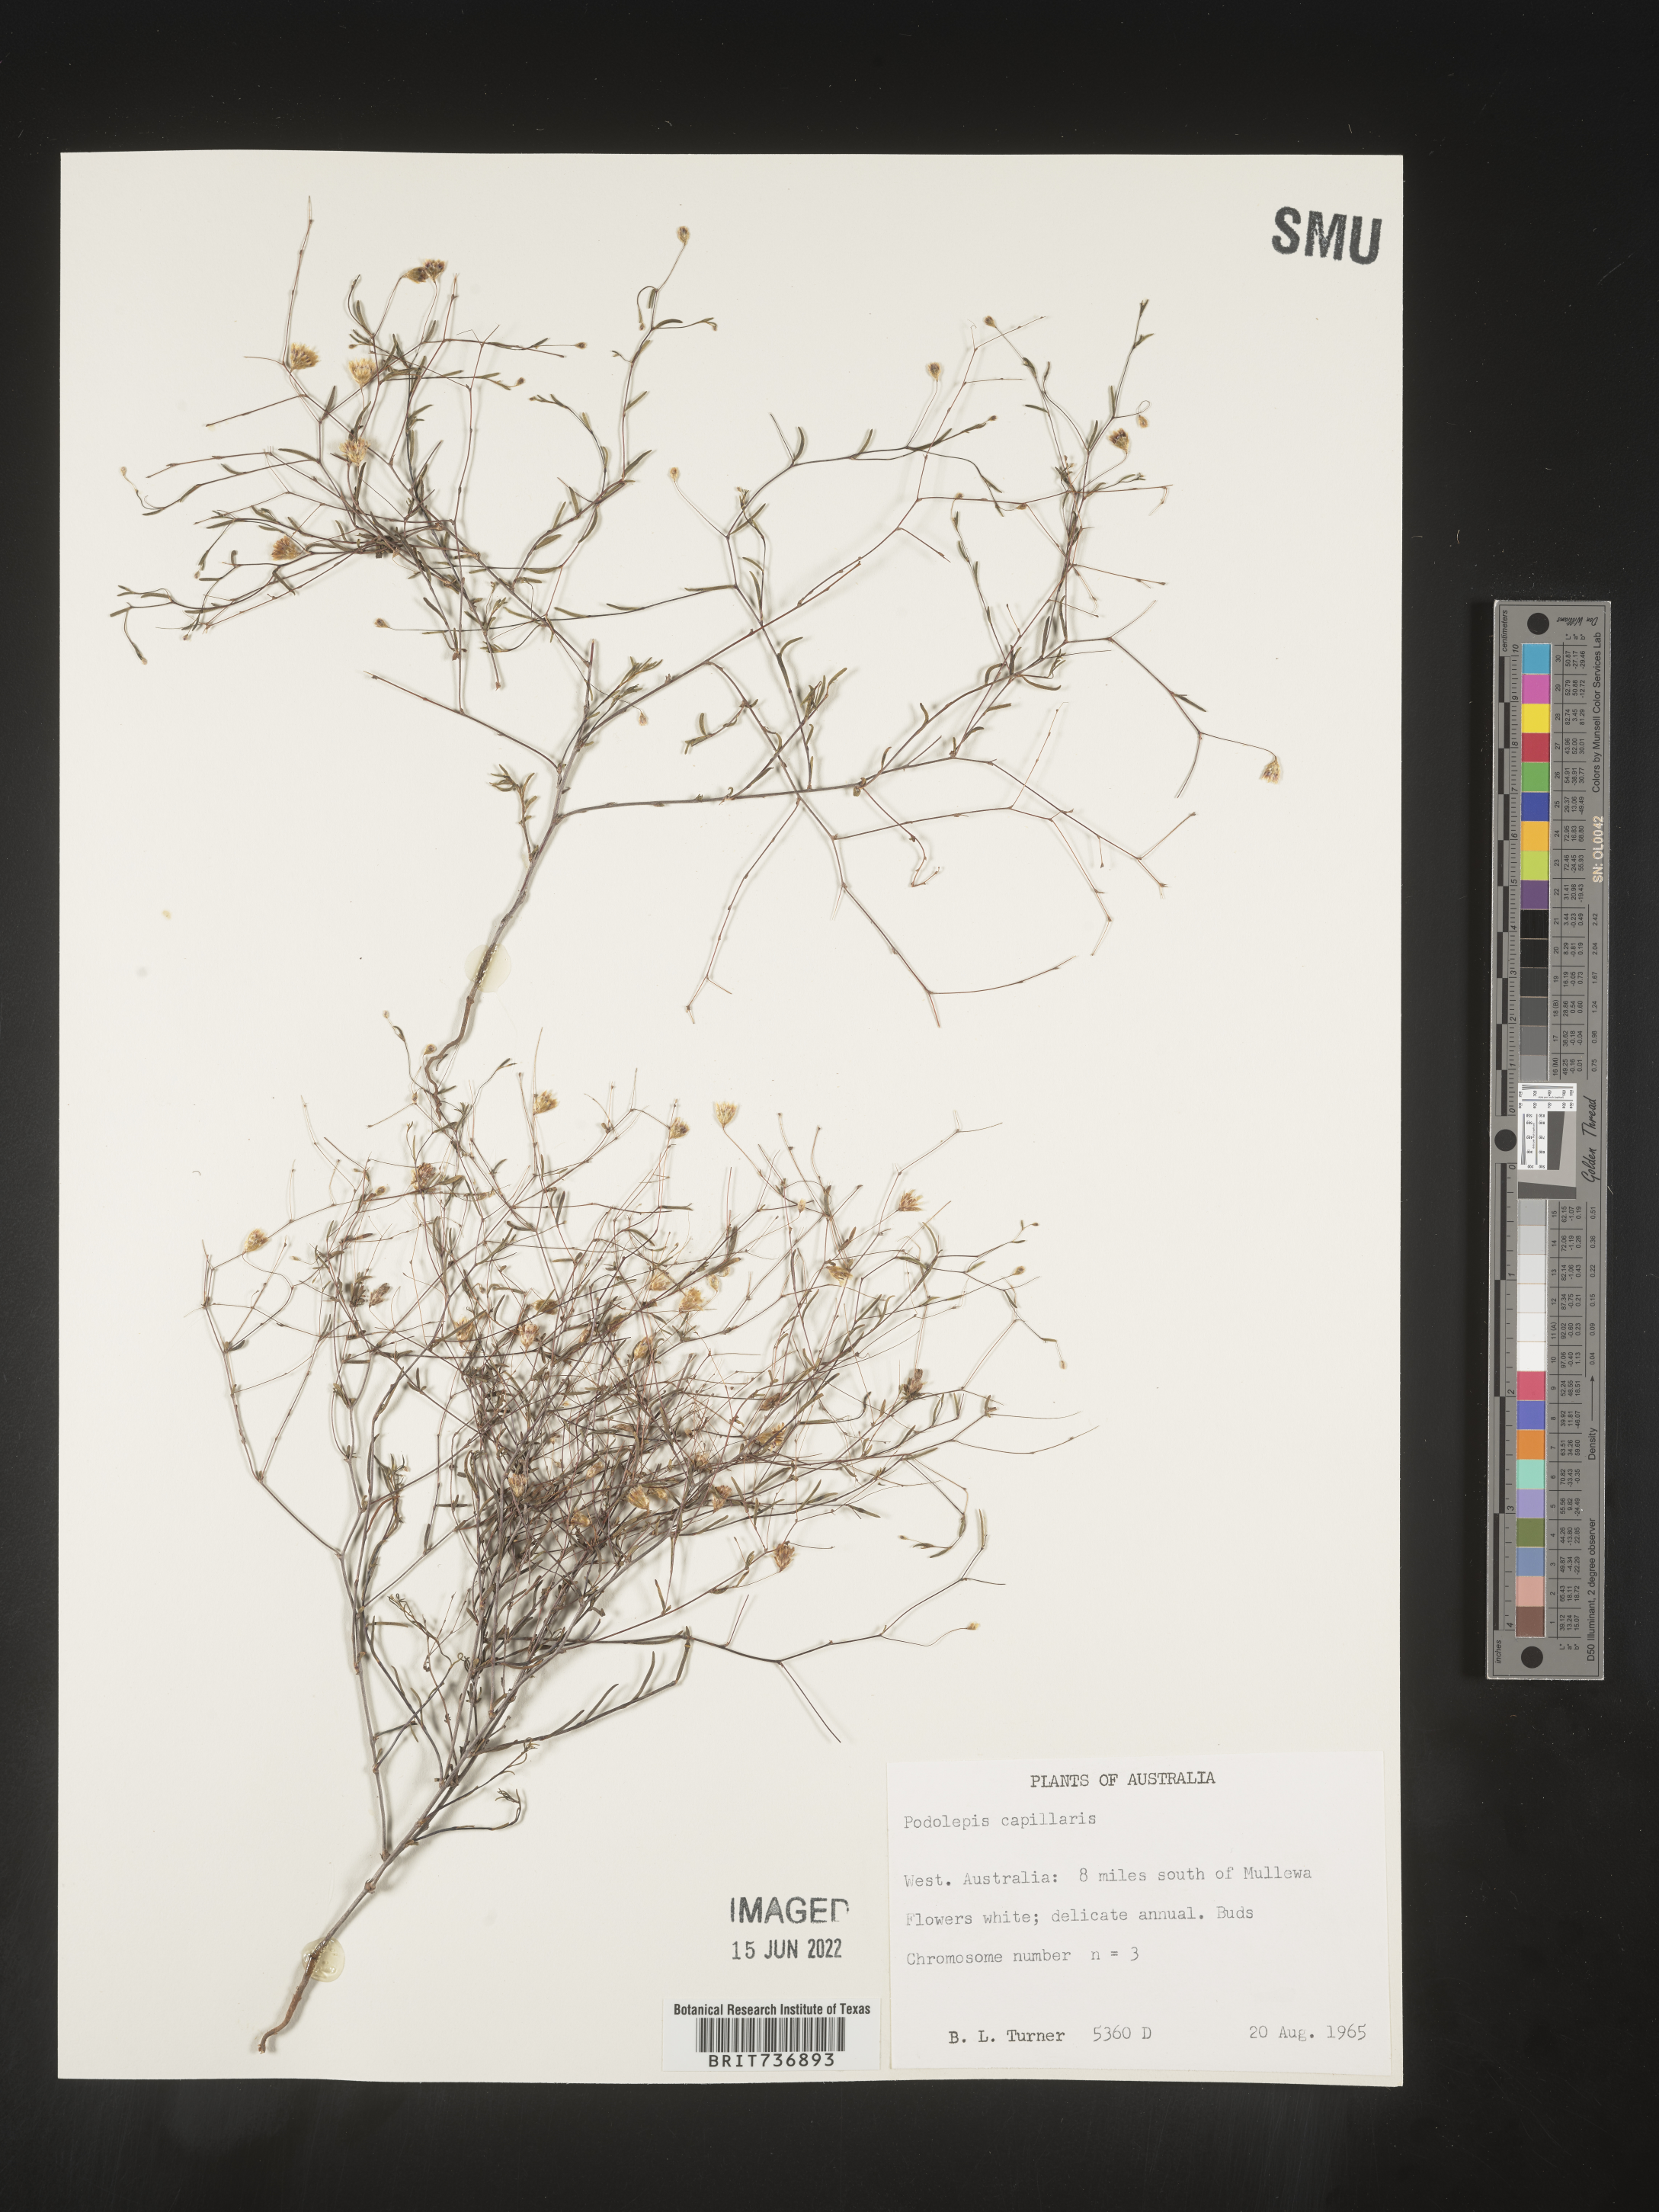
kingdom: Plantae
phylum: Tracheophyta
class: Magnoliopsida
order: Asterales
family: Asteraceae
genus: Podolepis
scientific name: Podolepis
